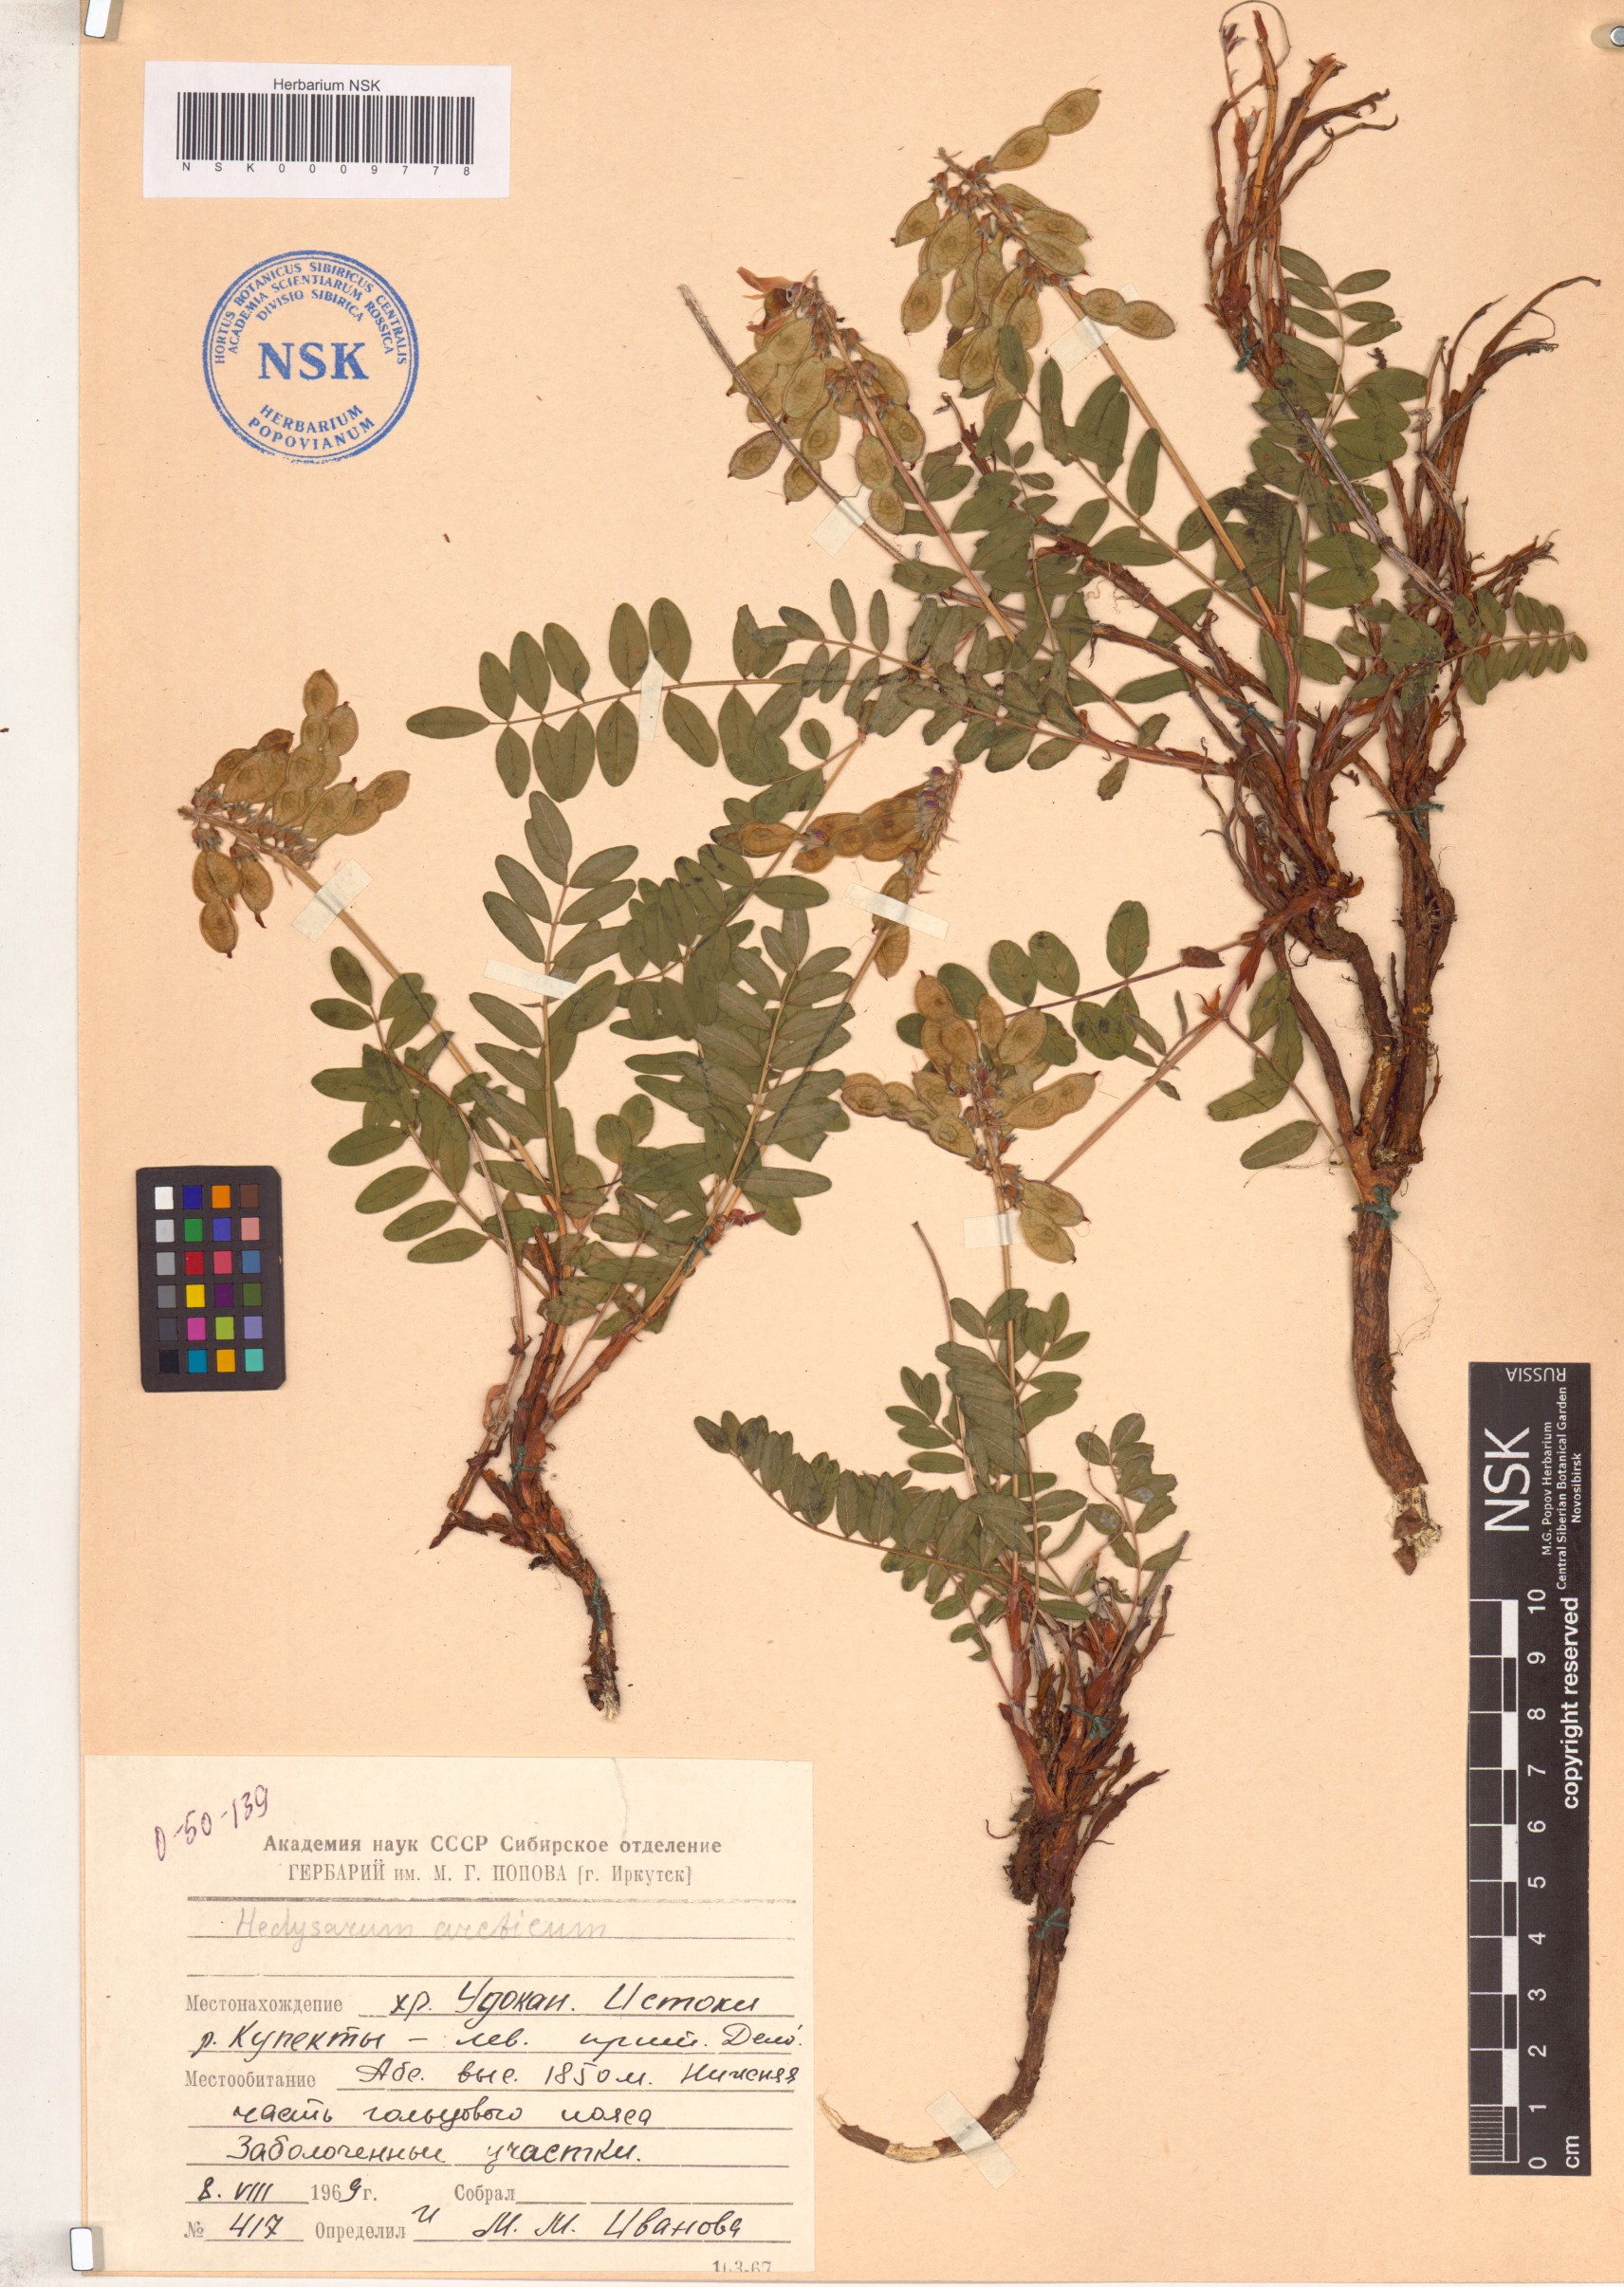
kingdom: Plantae
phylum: Tracheophyta
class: Magnoliopsida
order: Fabales
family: Fabaceae
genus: Hedysarum
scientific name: Hedysarum hedysaroides
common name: Alpine french-honeysuckle
